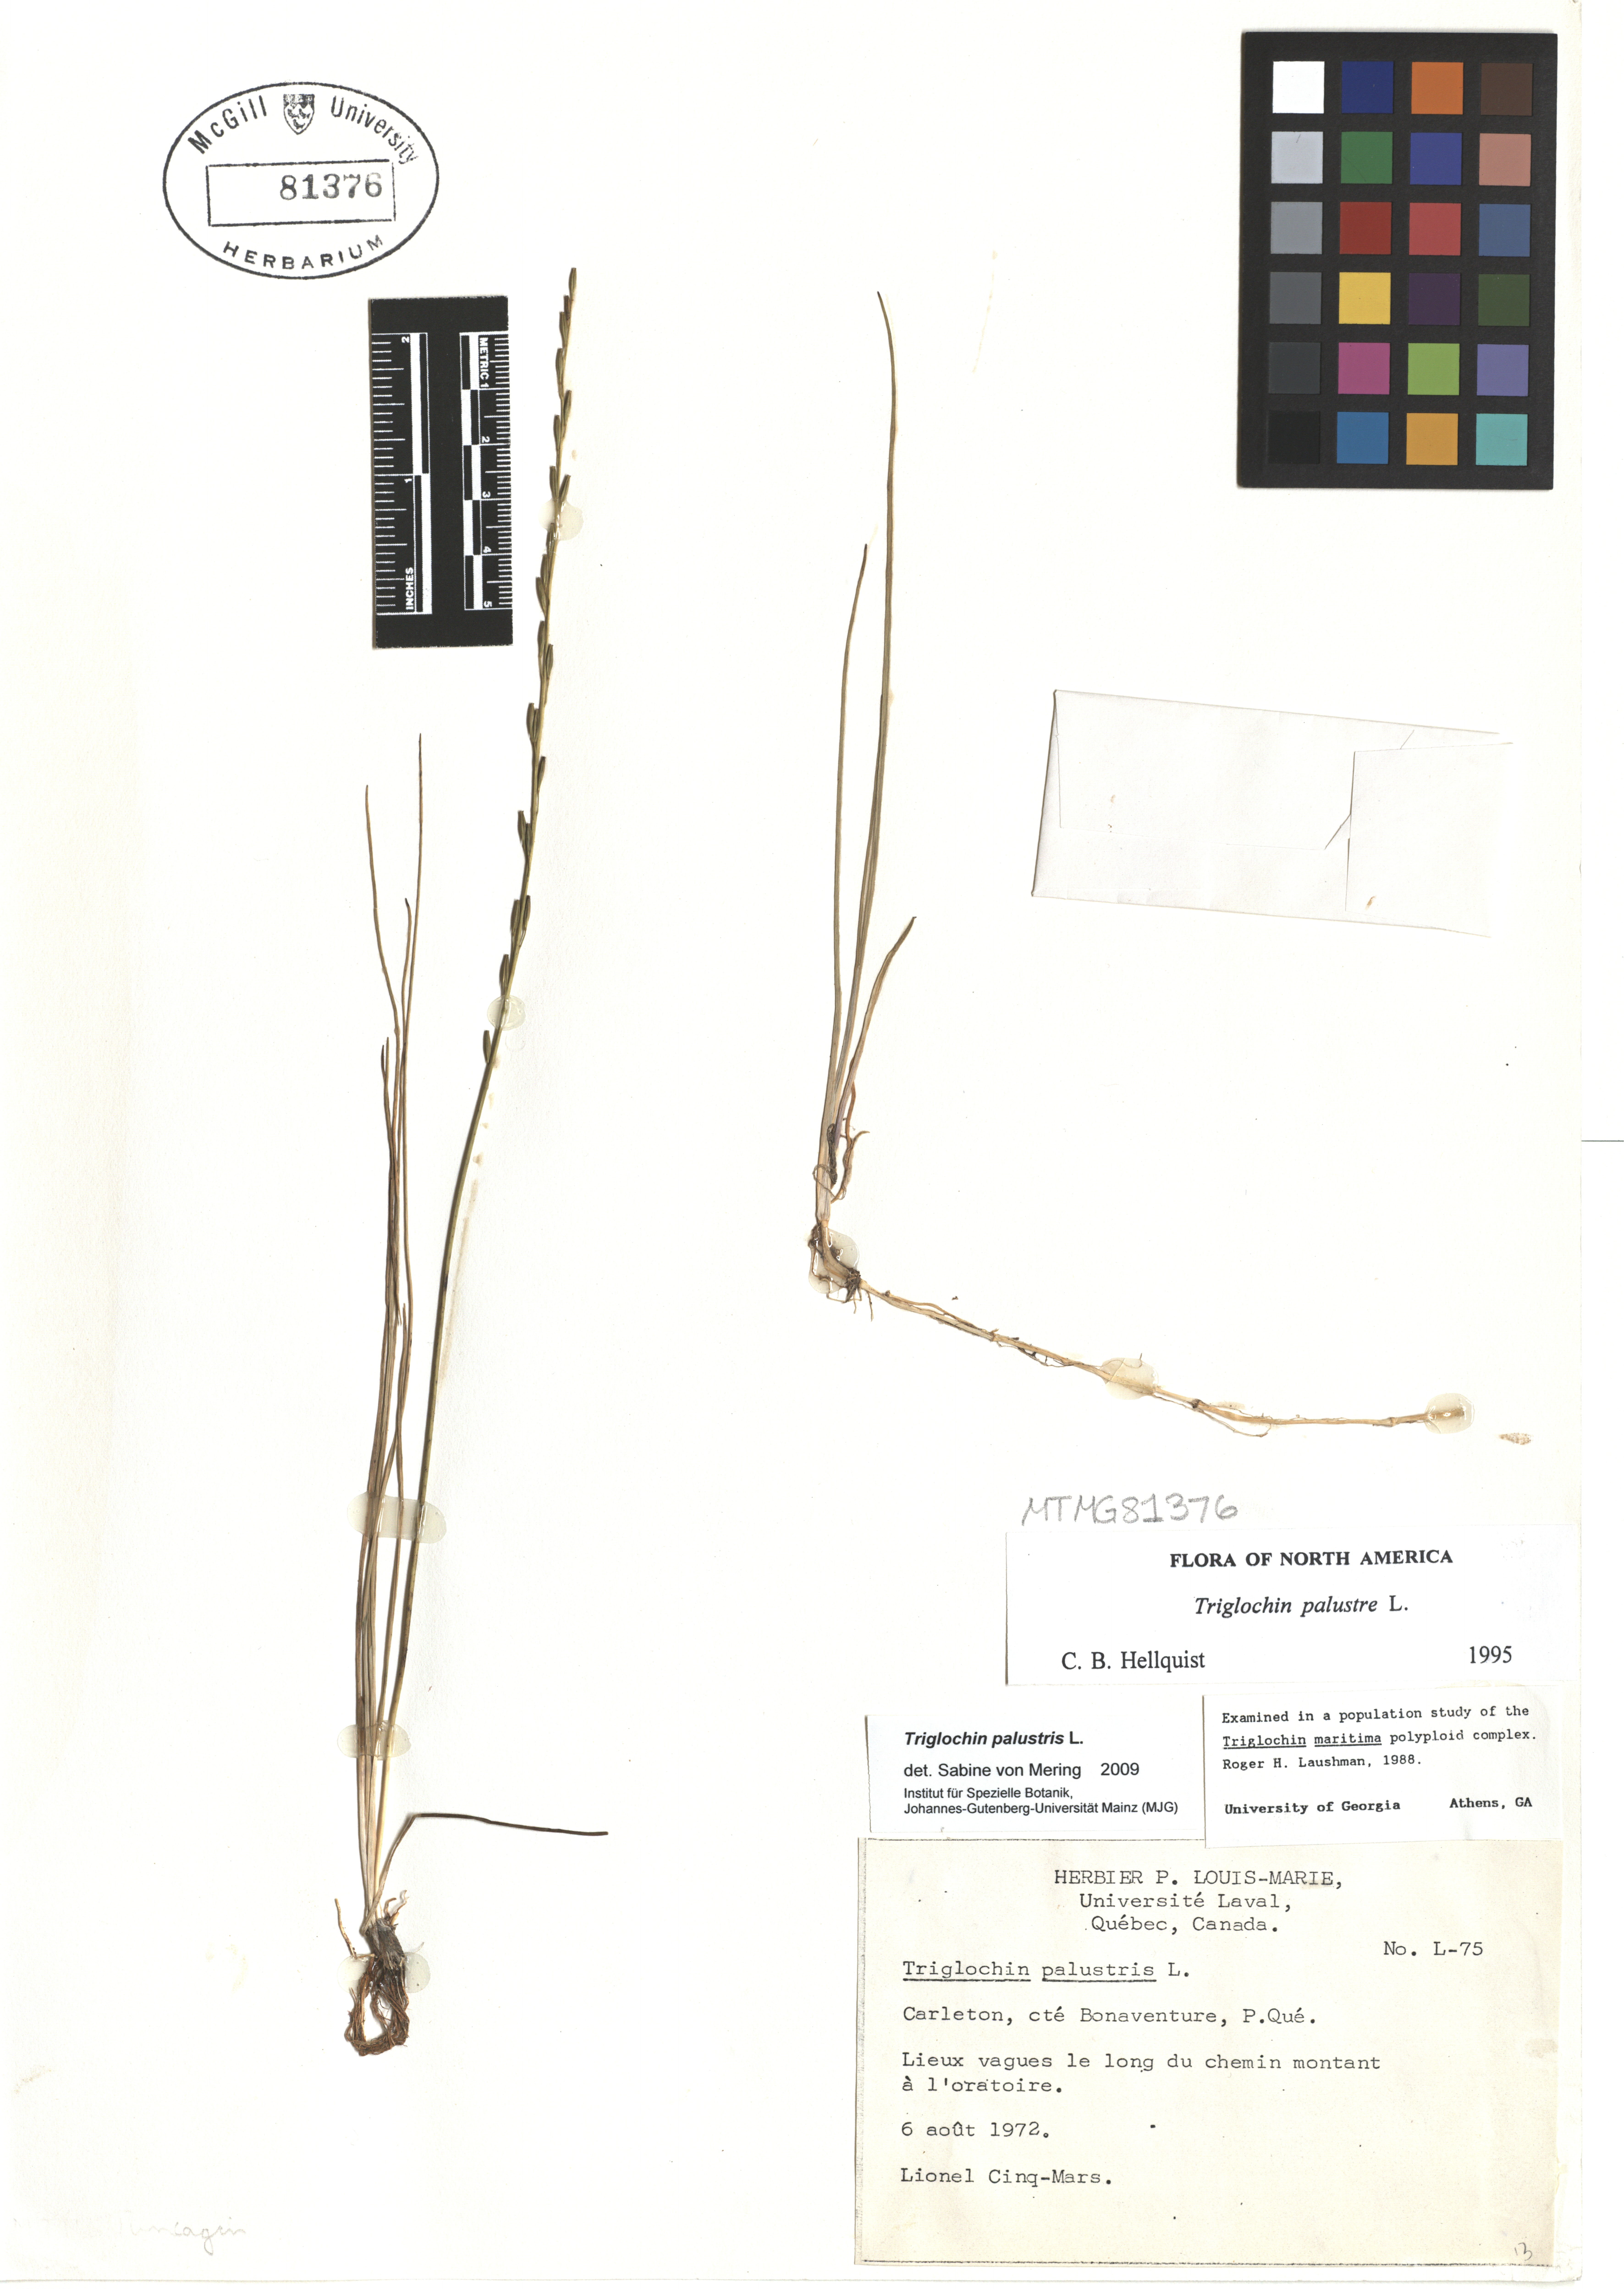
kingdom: Plantae
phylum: Tracheophyta
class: Liliopsida
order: Alismatales
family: Juncaginaceae
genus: Triglochin
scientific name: Triglochin palustris
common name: Marsh arrowgrass
